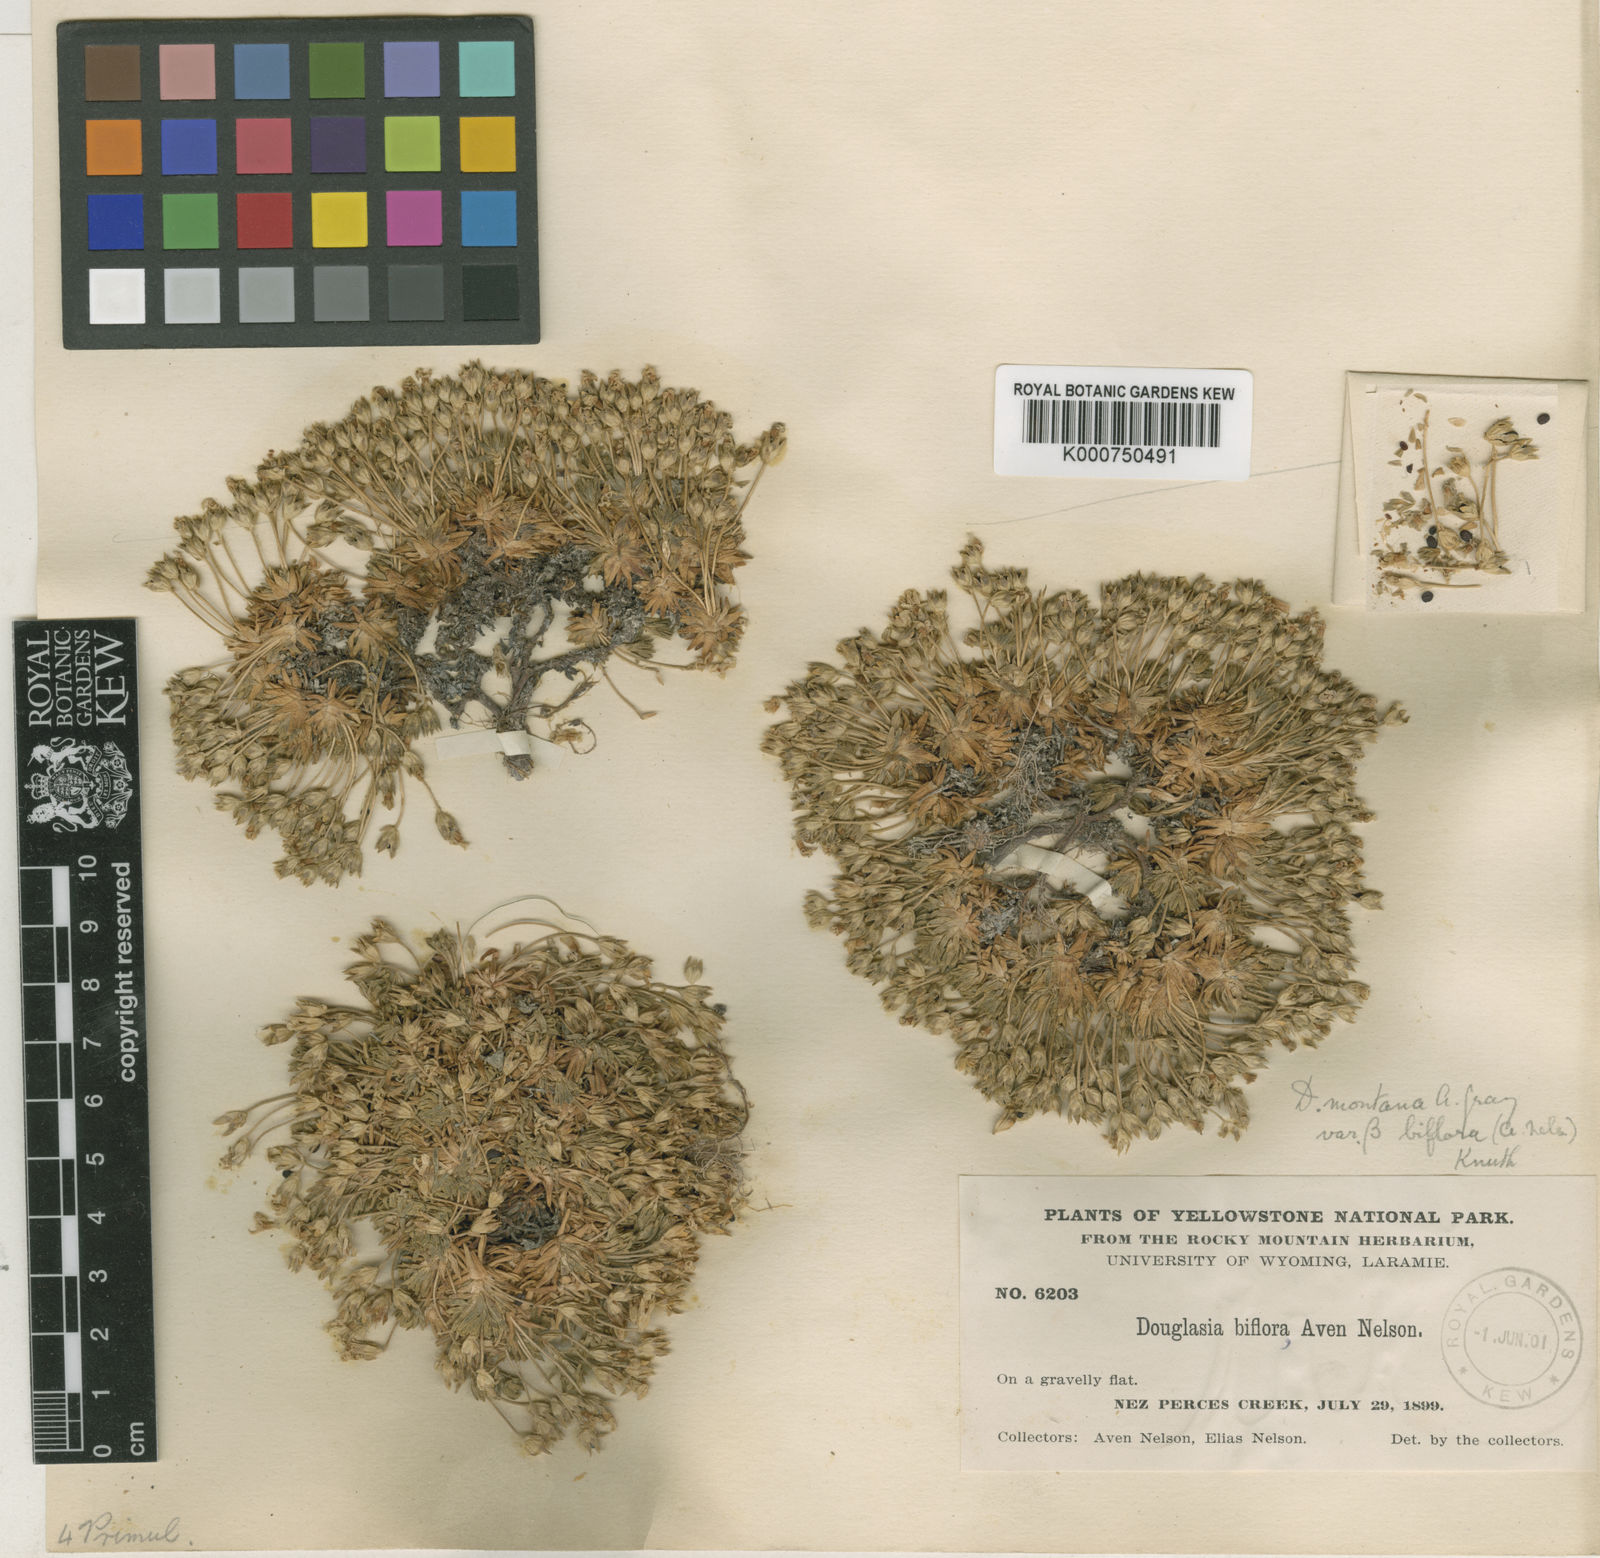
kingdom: Plantae
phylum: Tracheophyta
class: Magnoliopsida
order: Ericales
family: Primulaceae
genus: Androsace
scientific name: Androsace
